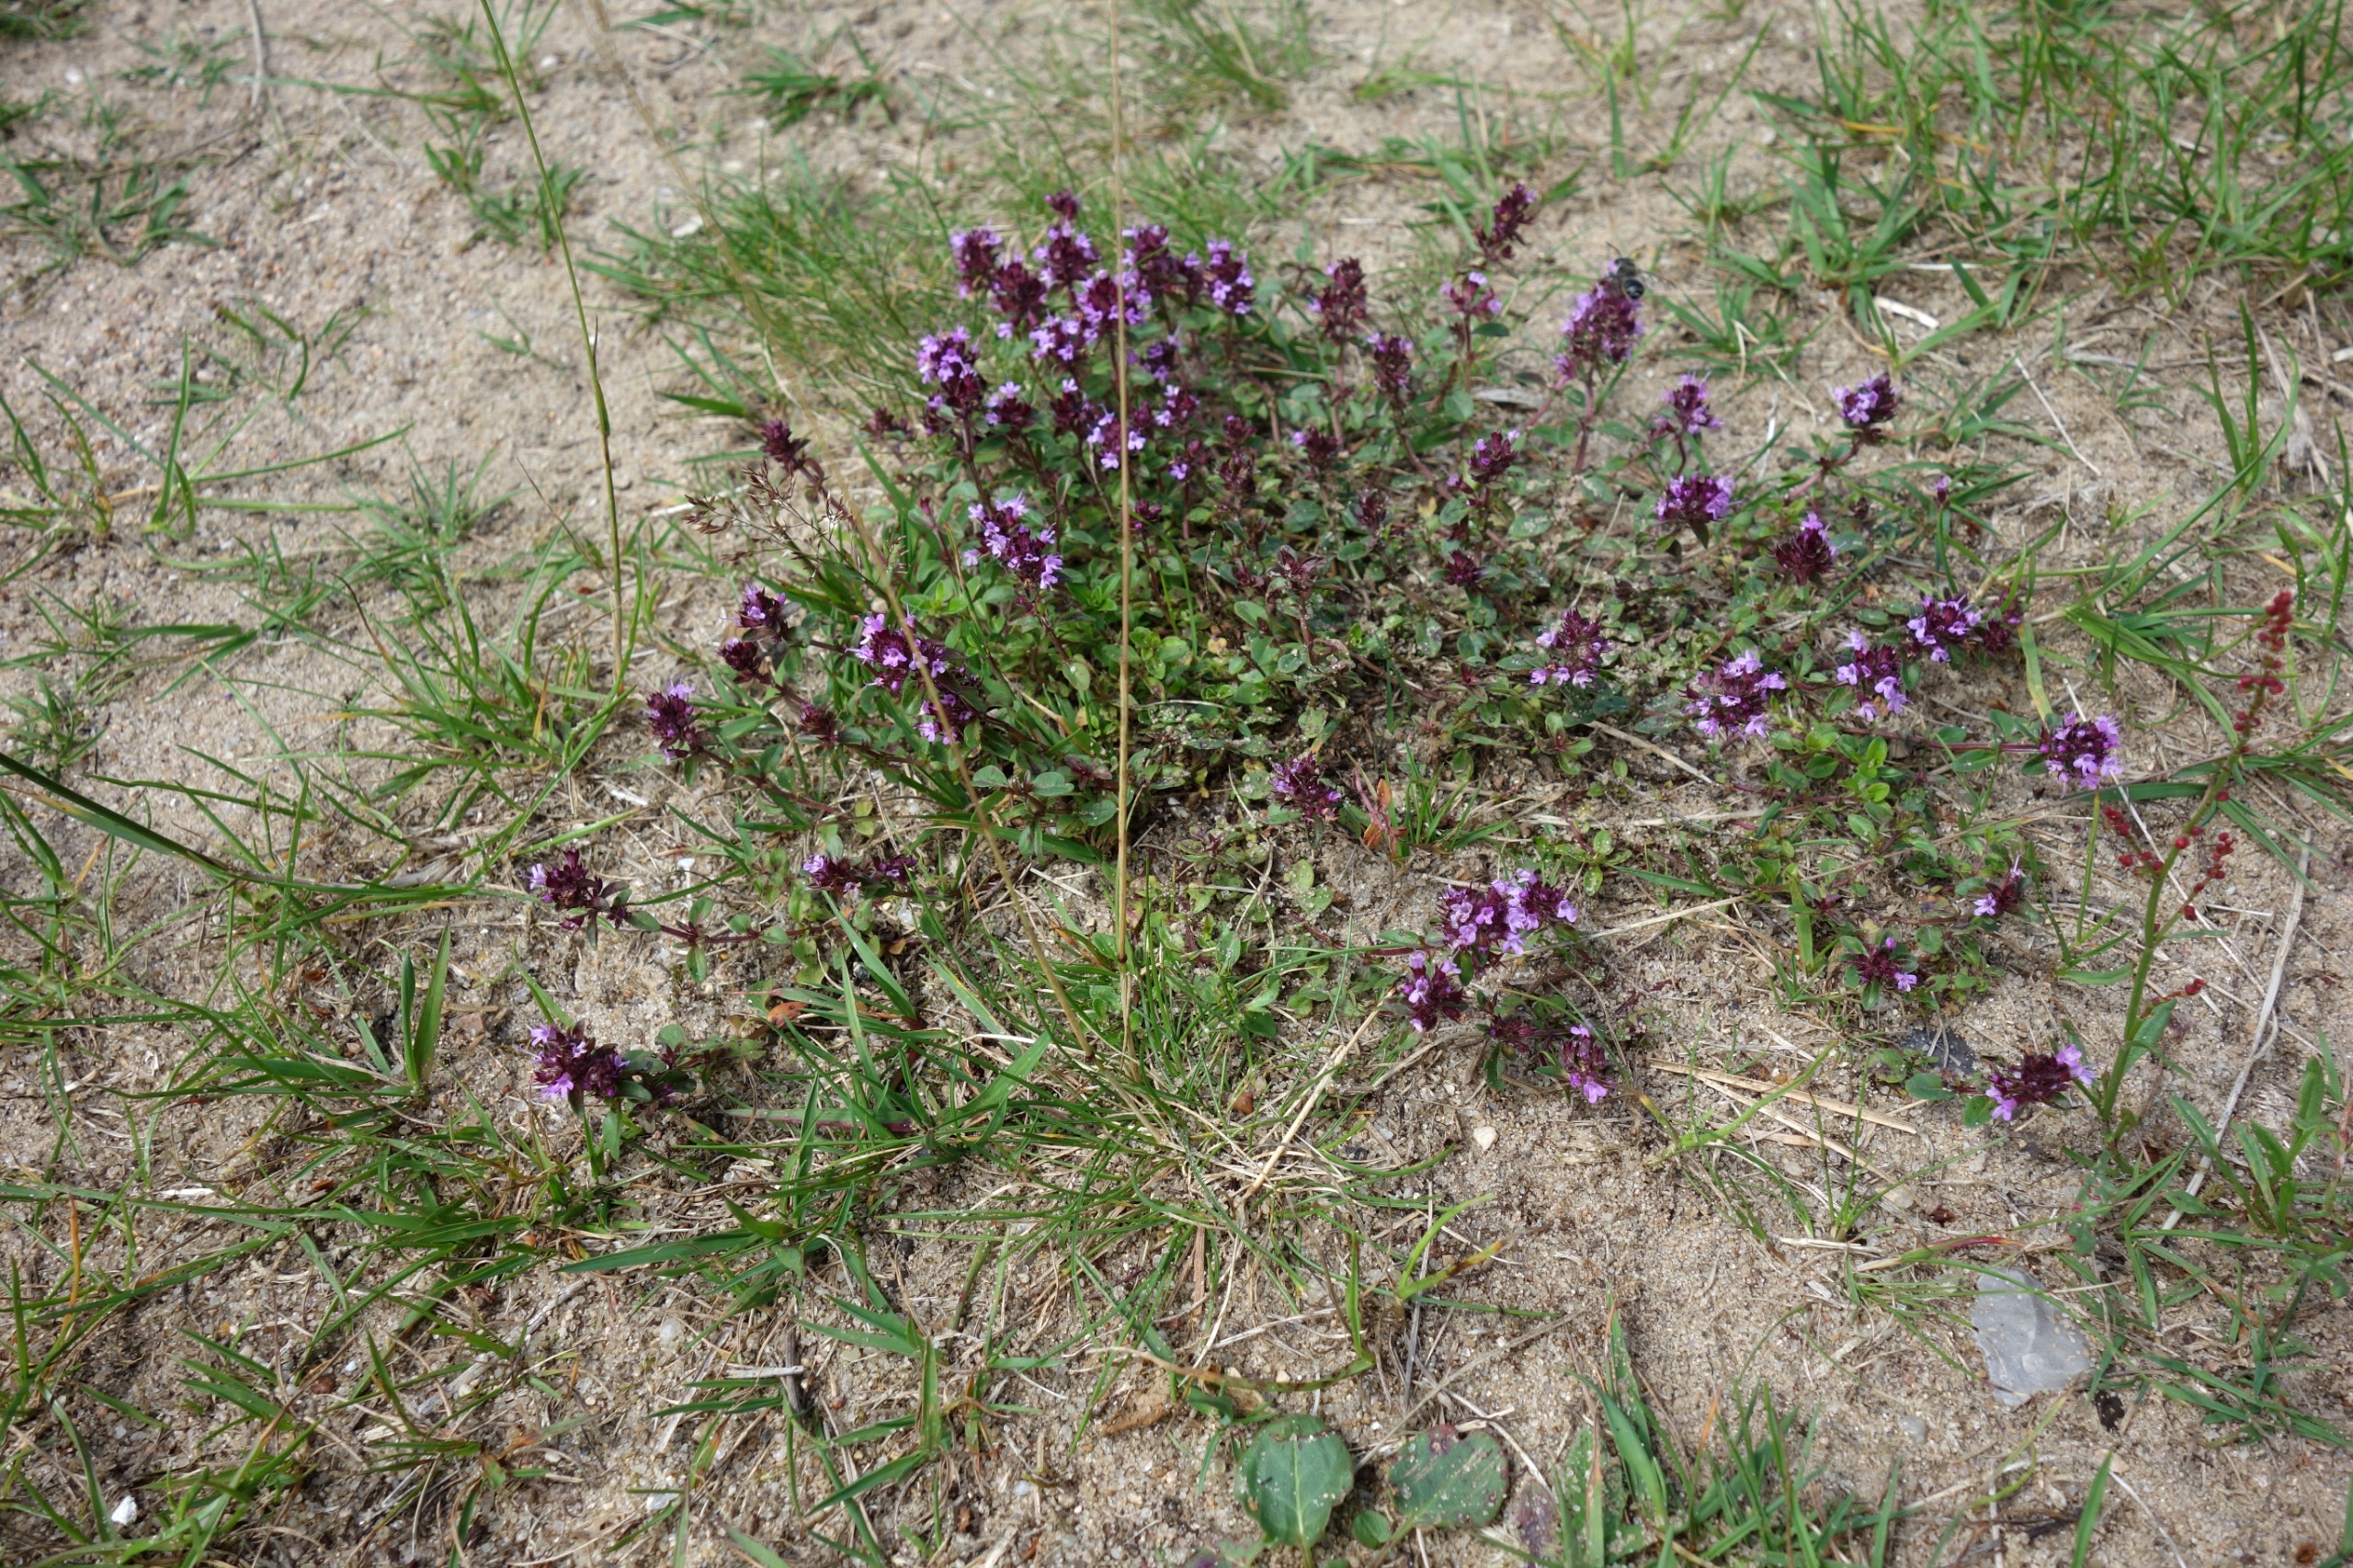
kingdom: Plantae
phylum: Tracheophyta
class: Magnoliopsida
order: Lamiales
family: Lamiaceae
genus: Thymus
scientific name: Thymus pulegioides
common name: Bredbladet timian
